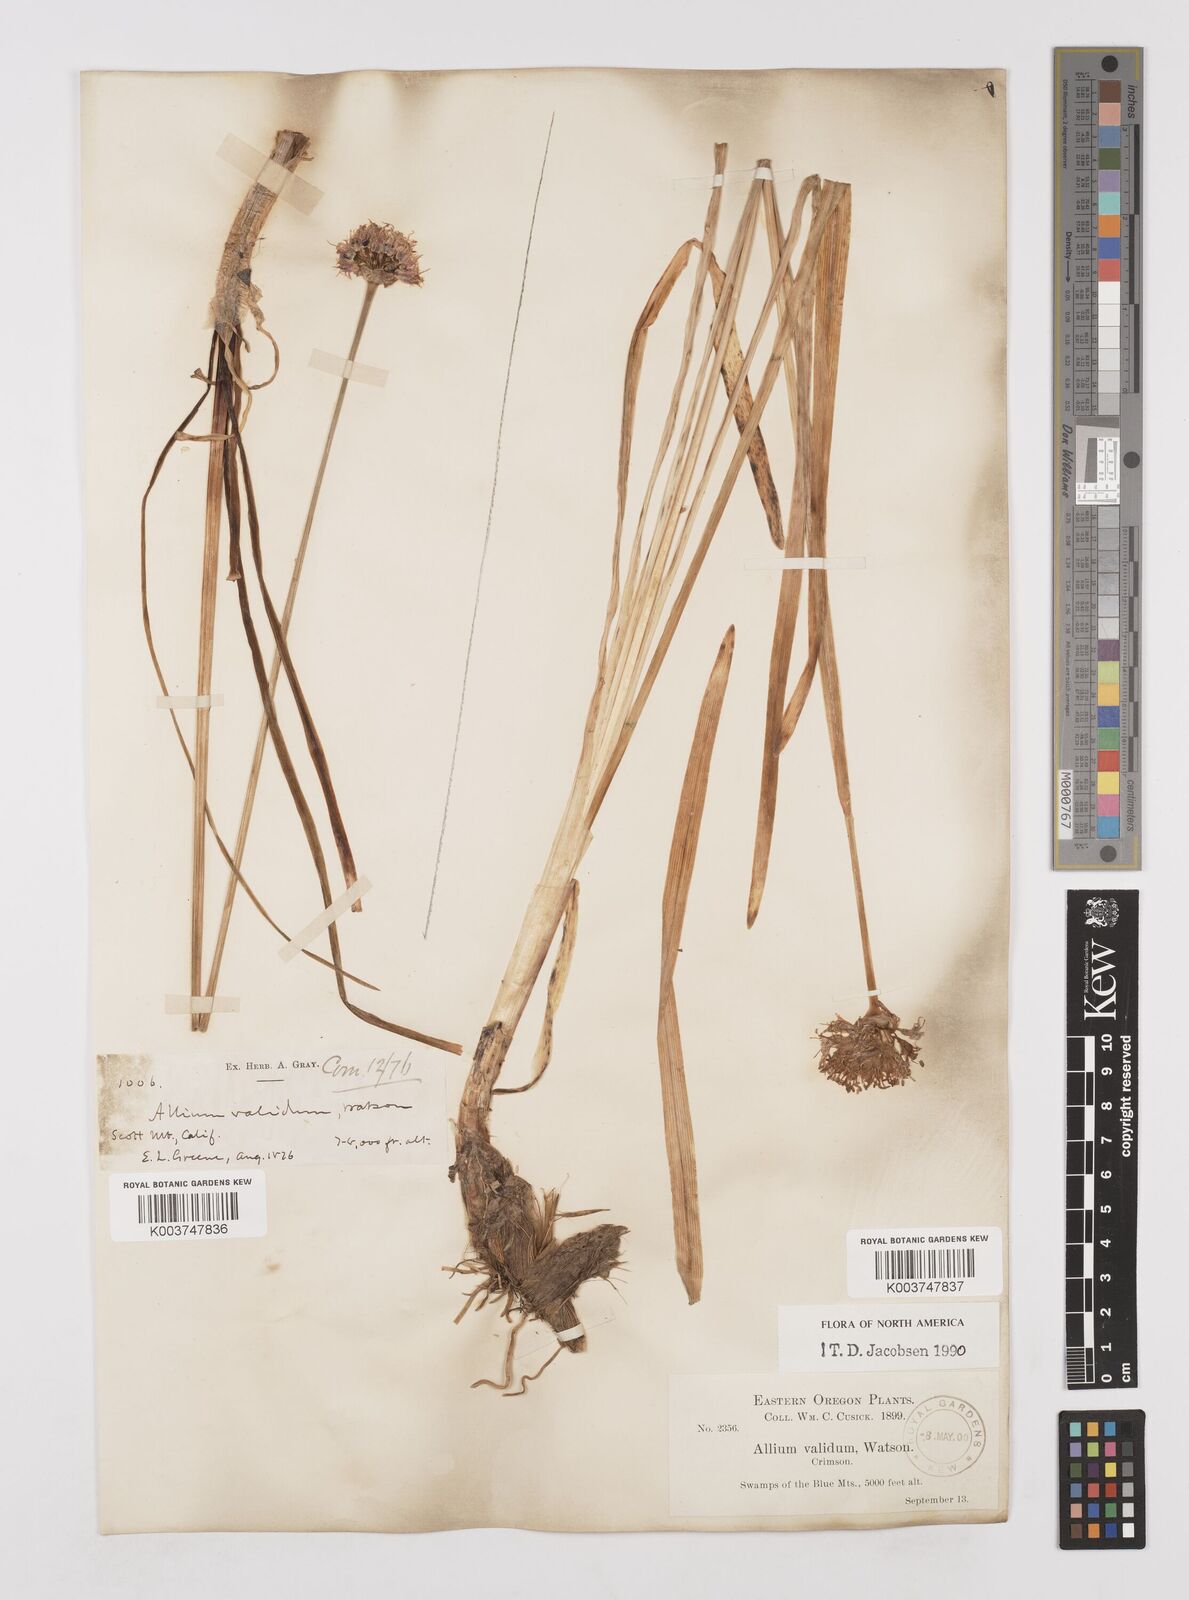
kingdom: Plantae
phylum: Tracheophyta
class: Liliopsida
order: Asparagales
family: Amaryllidaceae
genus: Allium
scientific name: Allium validum
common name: Pacific mountain onion
